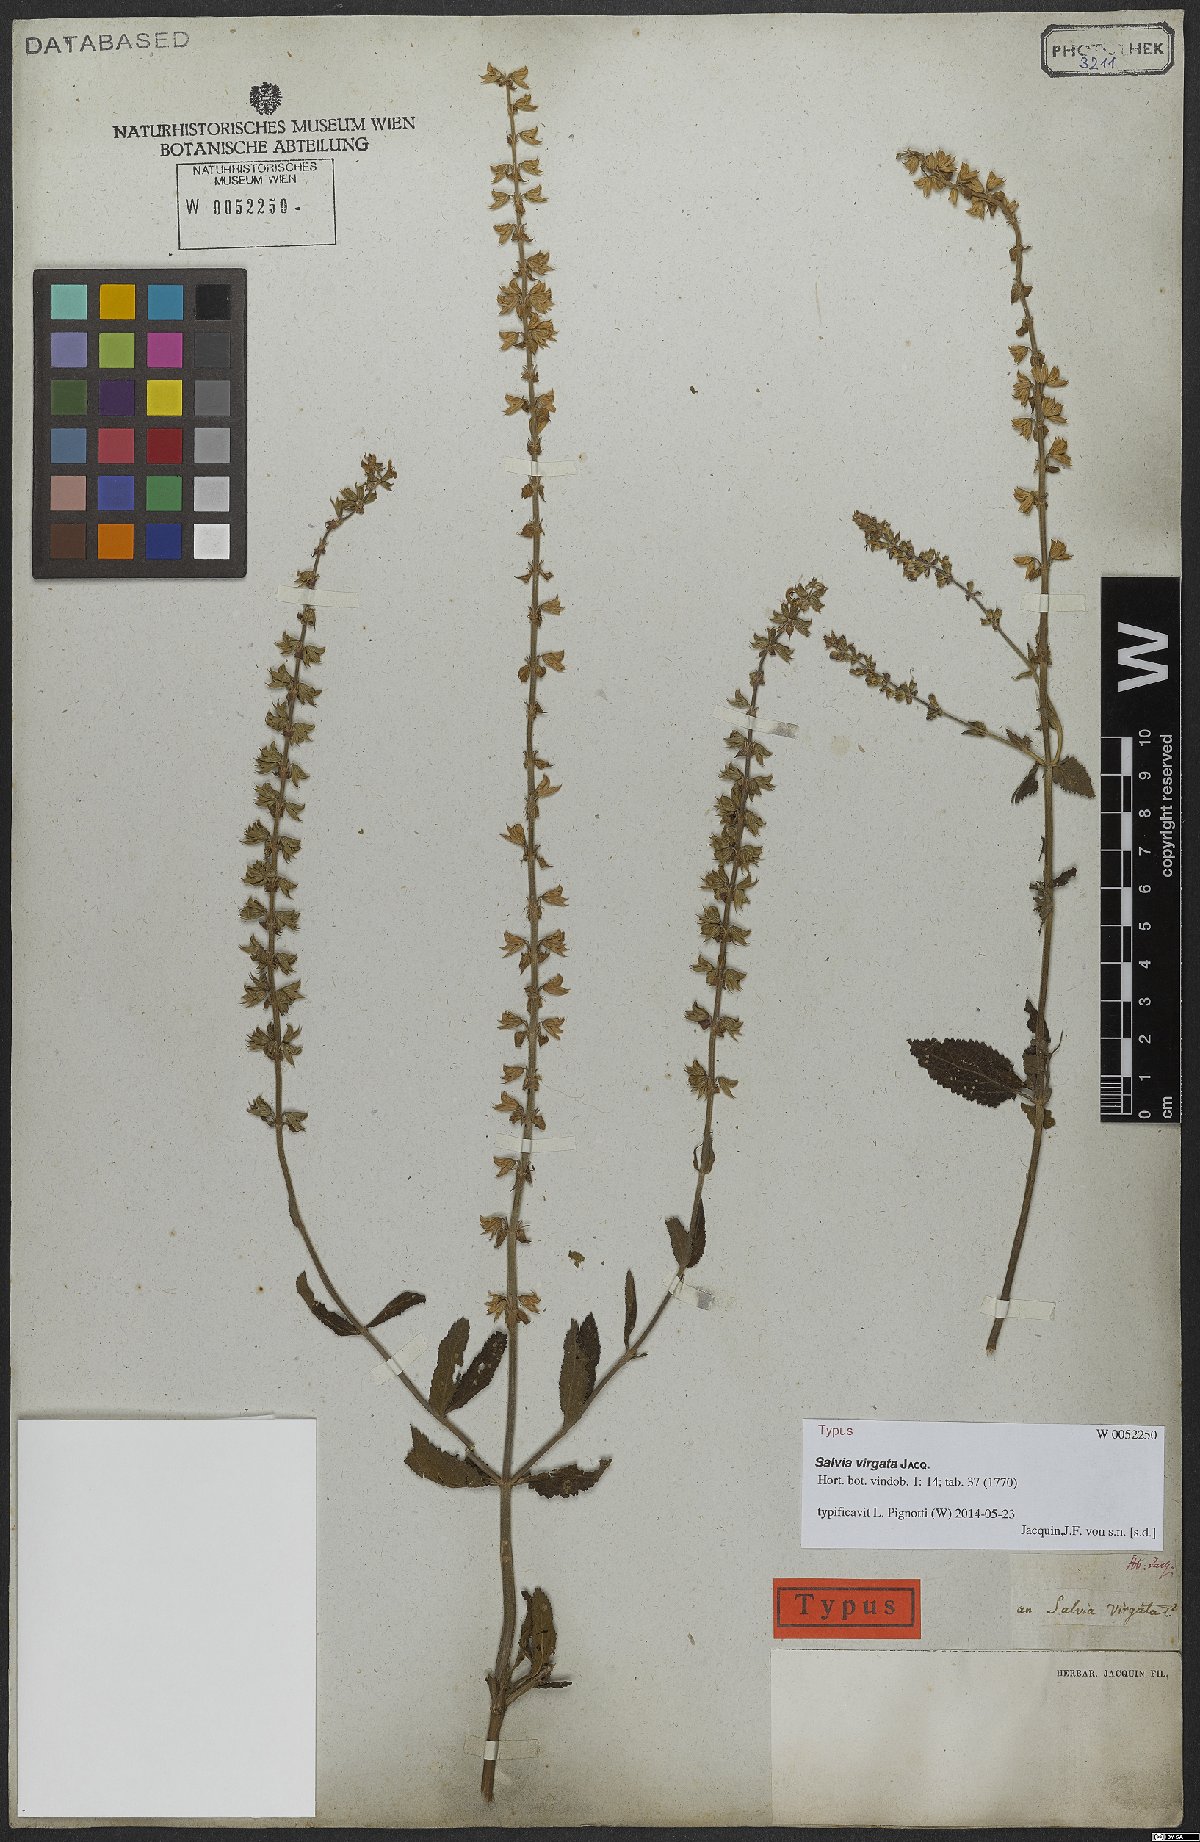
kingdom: Plantae
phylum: Tracheophyta
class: Magnoliopsida
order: Lamiales
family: Lamiaceae
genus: Salvia
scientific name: Salvia virgata
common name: Wand sage
